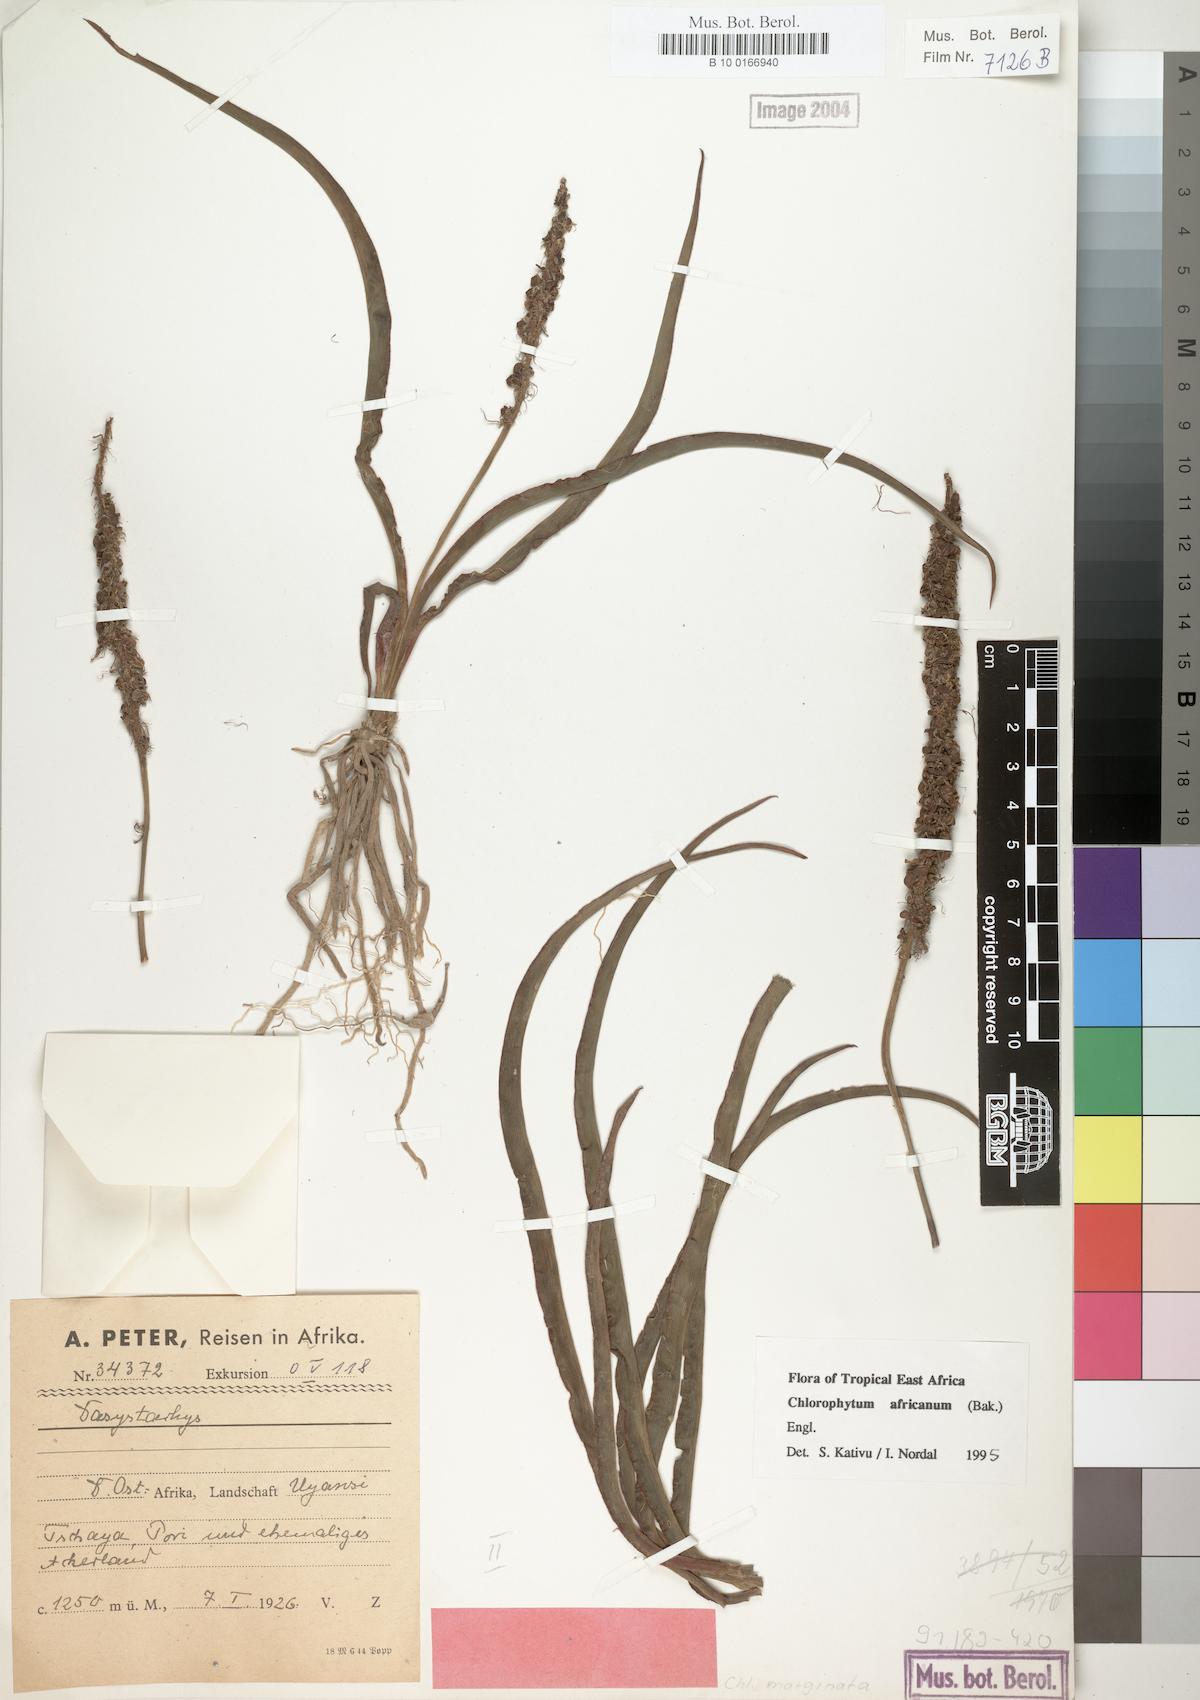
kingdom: Plantae
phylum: Tracheophyta
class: Liliopsida
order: Asparagales
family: Asparagaceae
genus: Chlorophytum
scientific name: Chlorophytum africanum
